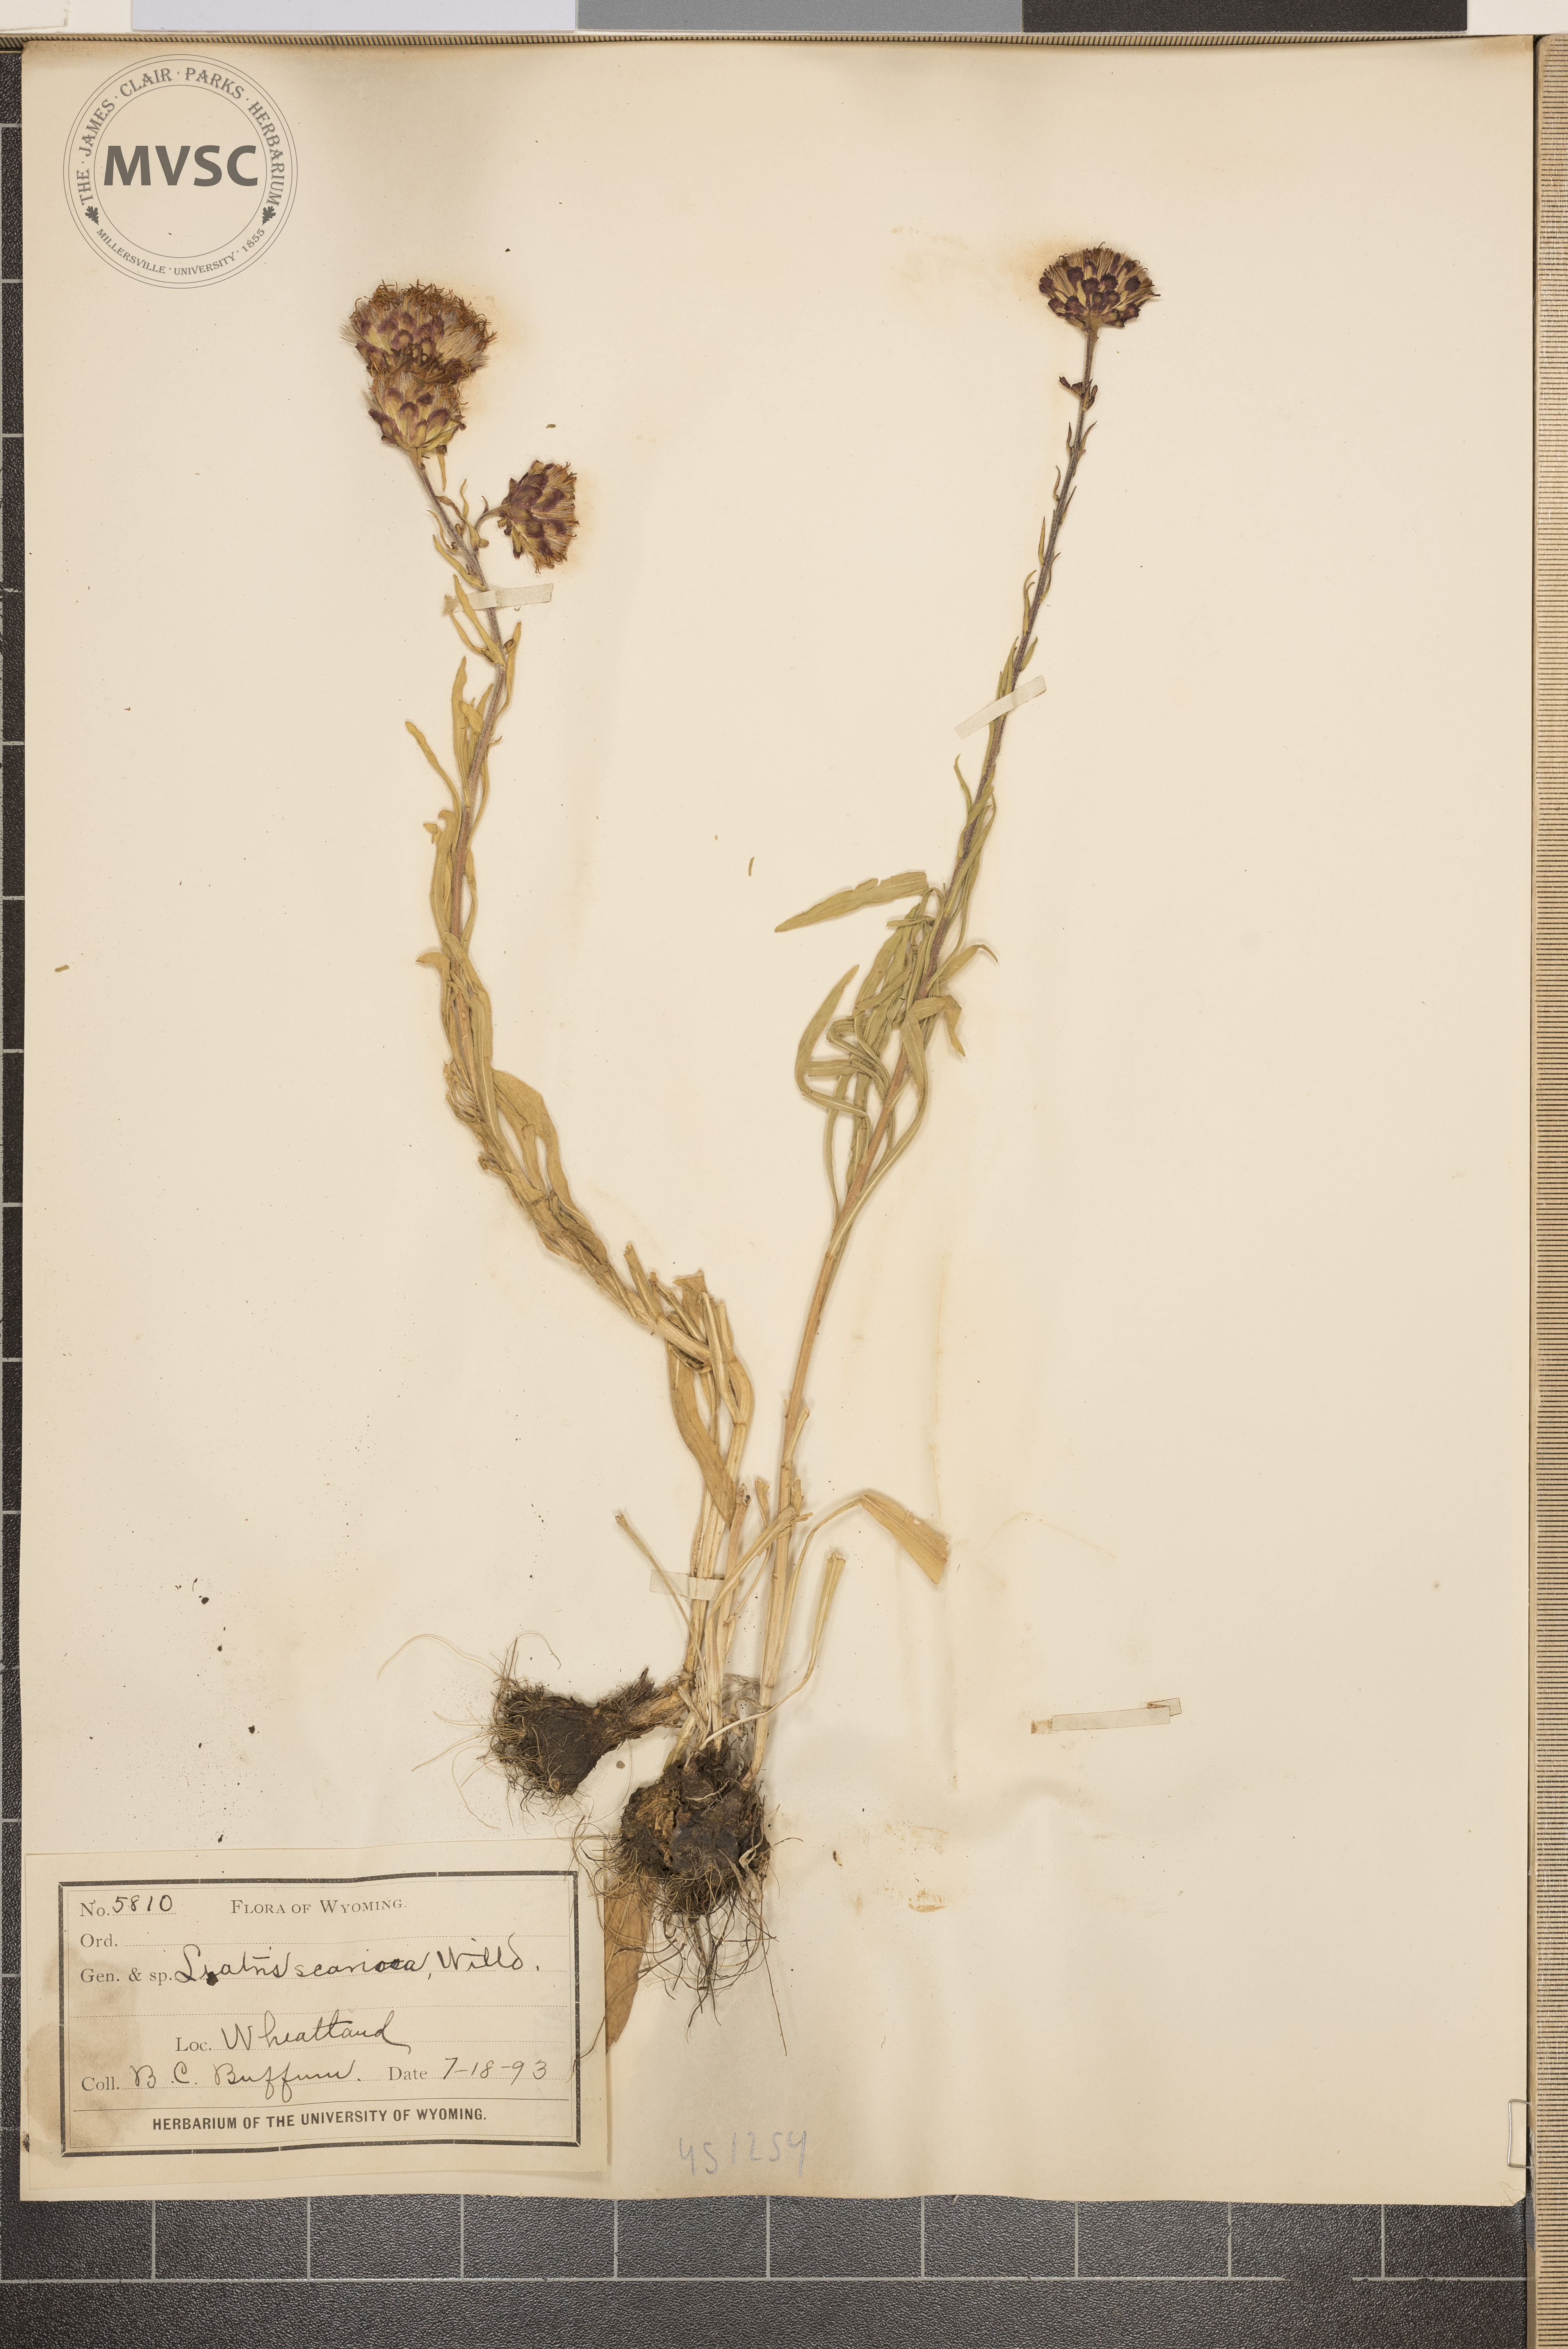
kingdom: Plantae
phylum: Tracheophyta
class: Magnoliopsida
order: Asterales
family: Asteraceae
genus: Liatris
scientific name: Liatris scariosa
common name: Northern gayfeather
